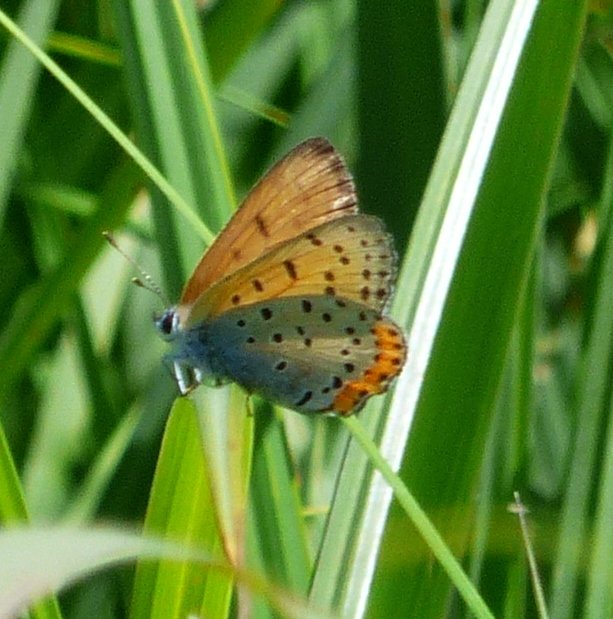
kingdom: Animalia
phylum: Arthropoda
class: Insecta
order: Lepidoptera
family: Sesiidae
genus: Sesia
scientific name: Sesia Lycaena hyllus
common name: Bronze Copper
